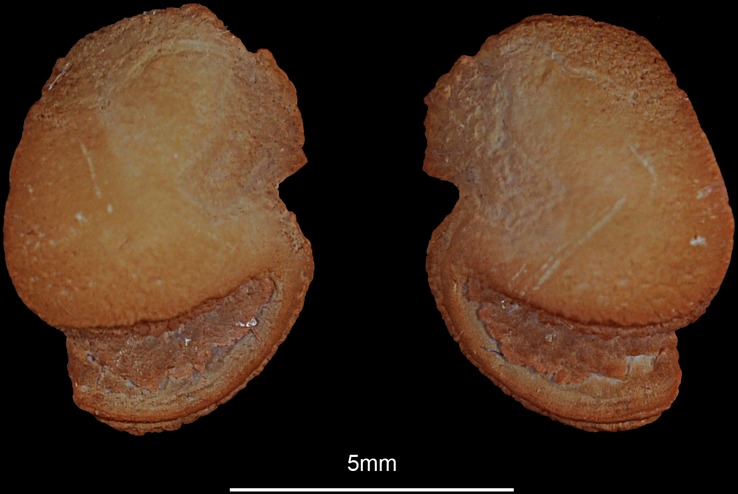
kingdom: Animalia
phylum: Chordata
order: Siluriformes
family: Plotosidae
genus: Plotosus
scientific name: Plotosus lineatus
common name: Striped eel catfish
